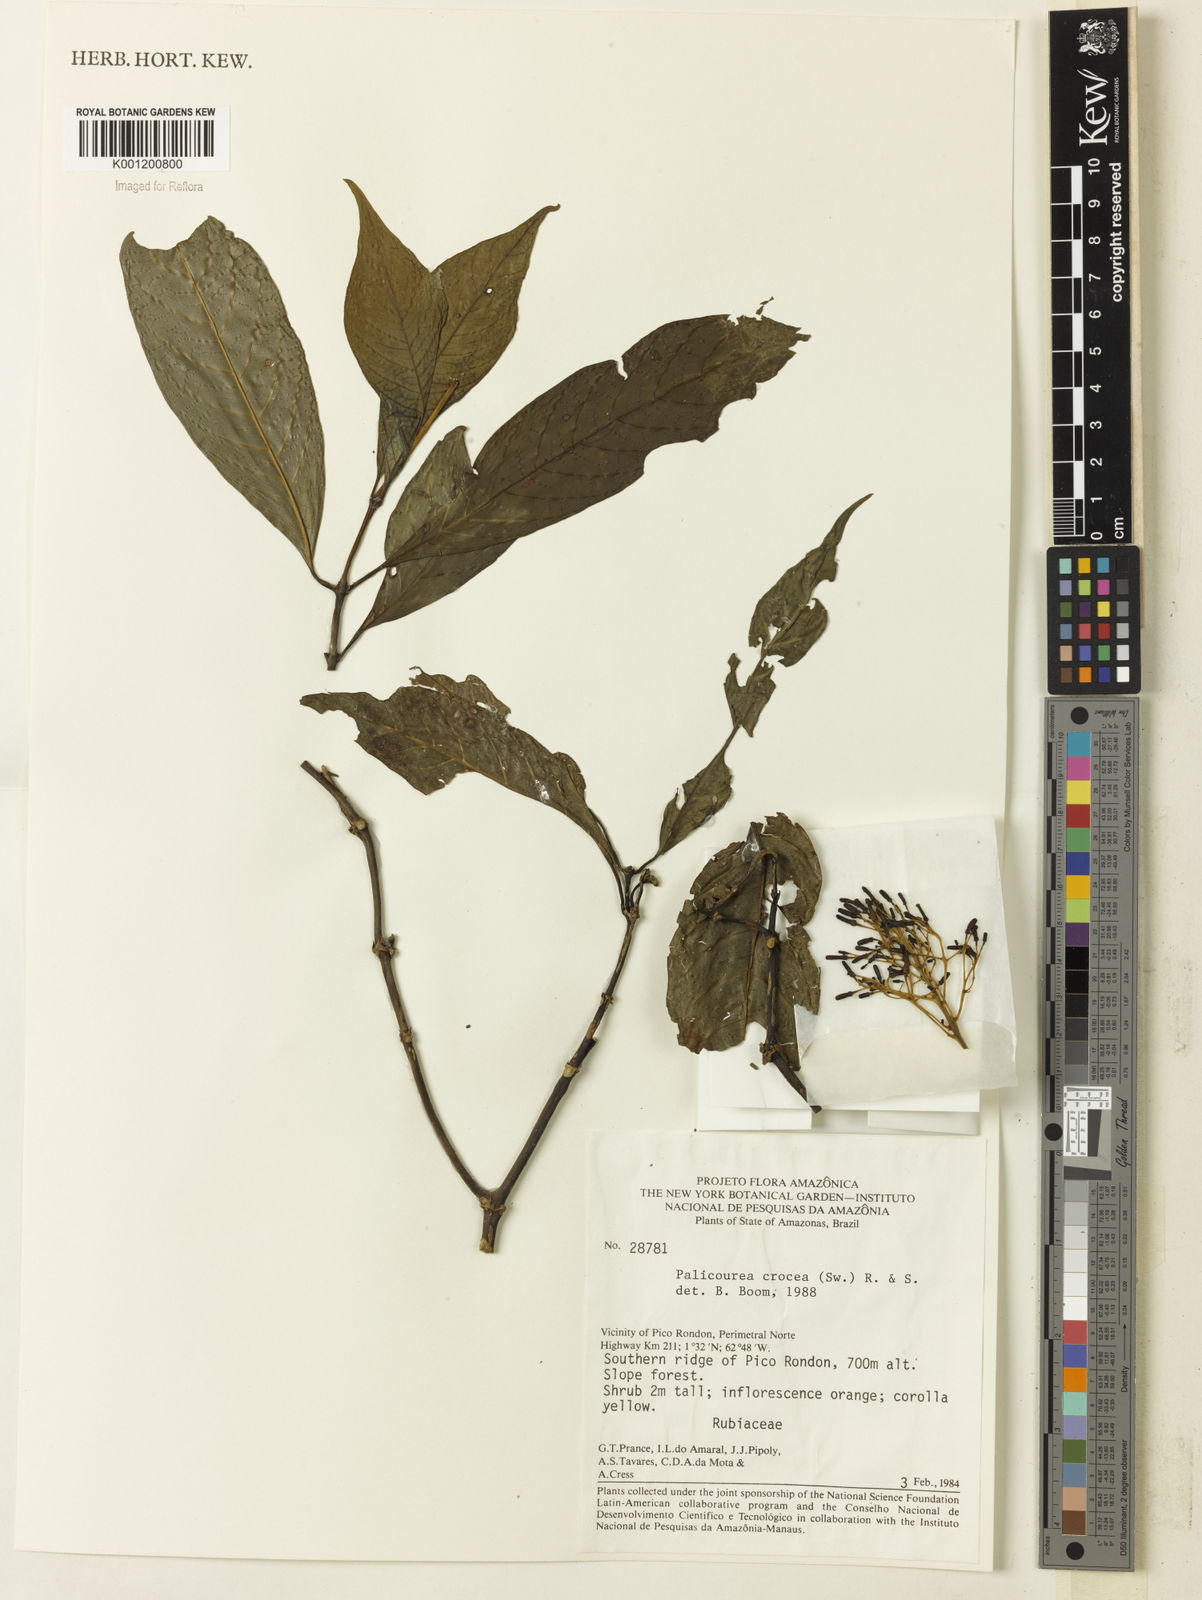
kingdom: Plantae
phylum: Tracheophyta
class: Magnoliopsida
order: Gentianales
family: Rubiaceae
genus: Palicourea
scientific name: Palicourea crocea
